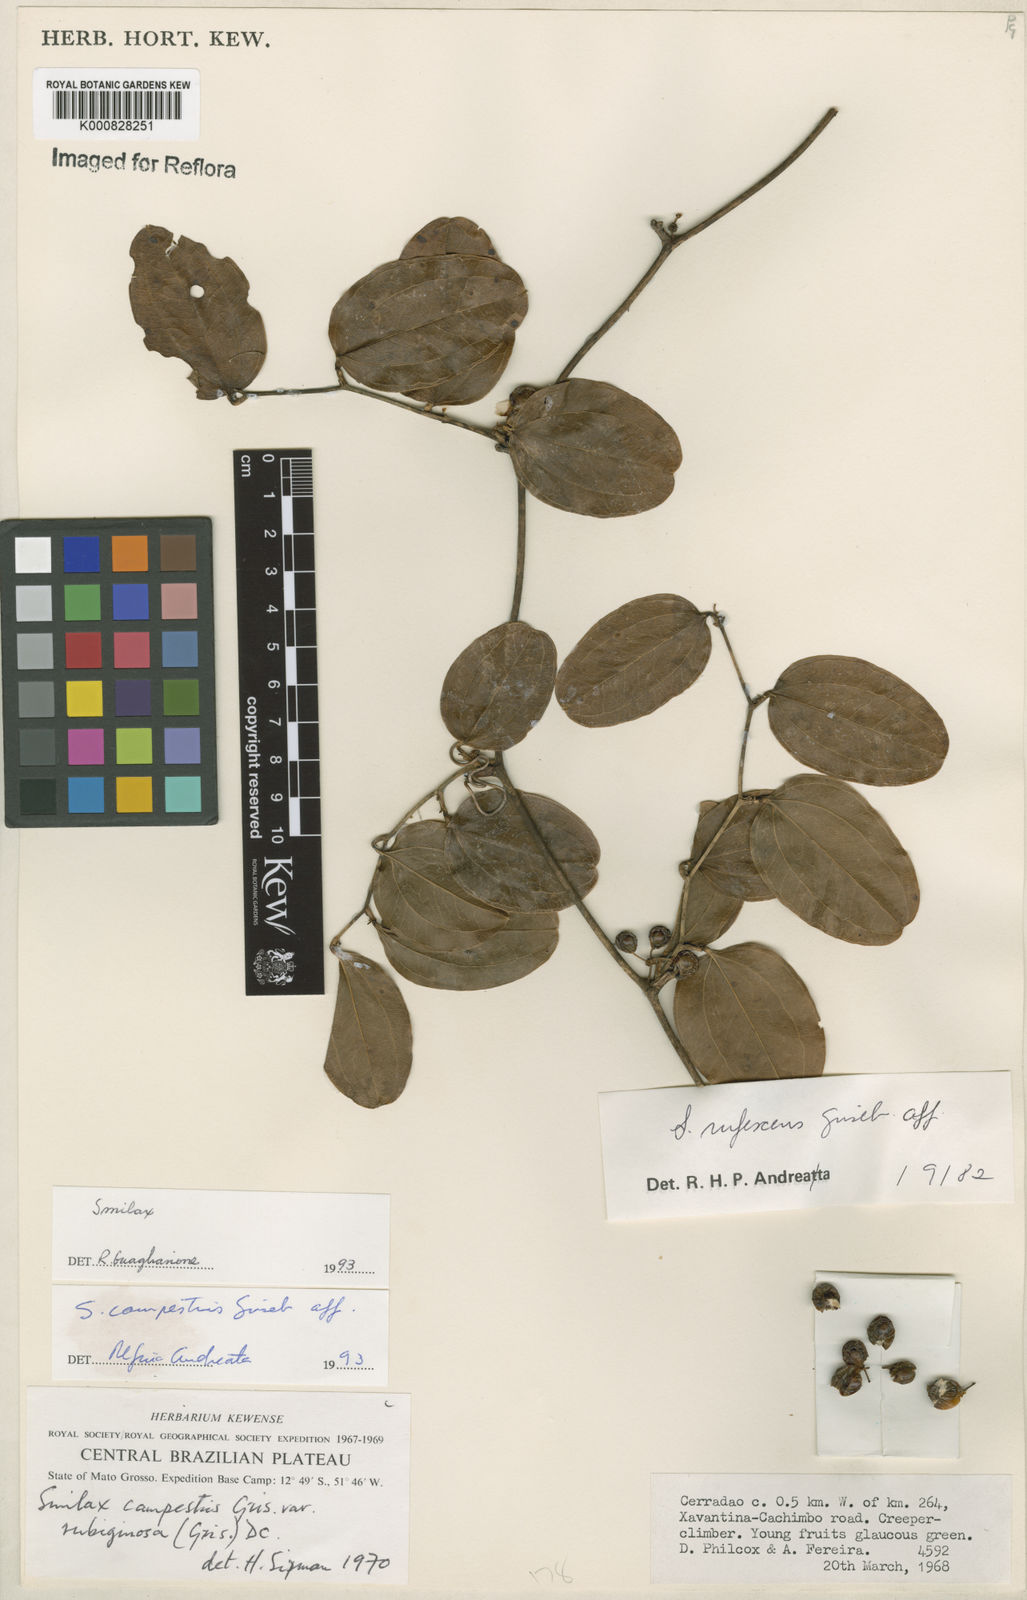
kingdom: Plantae
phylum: Tracheophyta
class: Liliopsida
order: Liliales
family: Smilacaceae
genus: Smilax
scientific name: Smilax campestris
